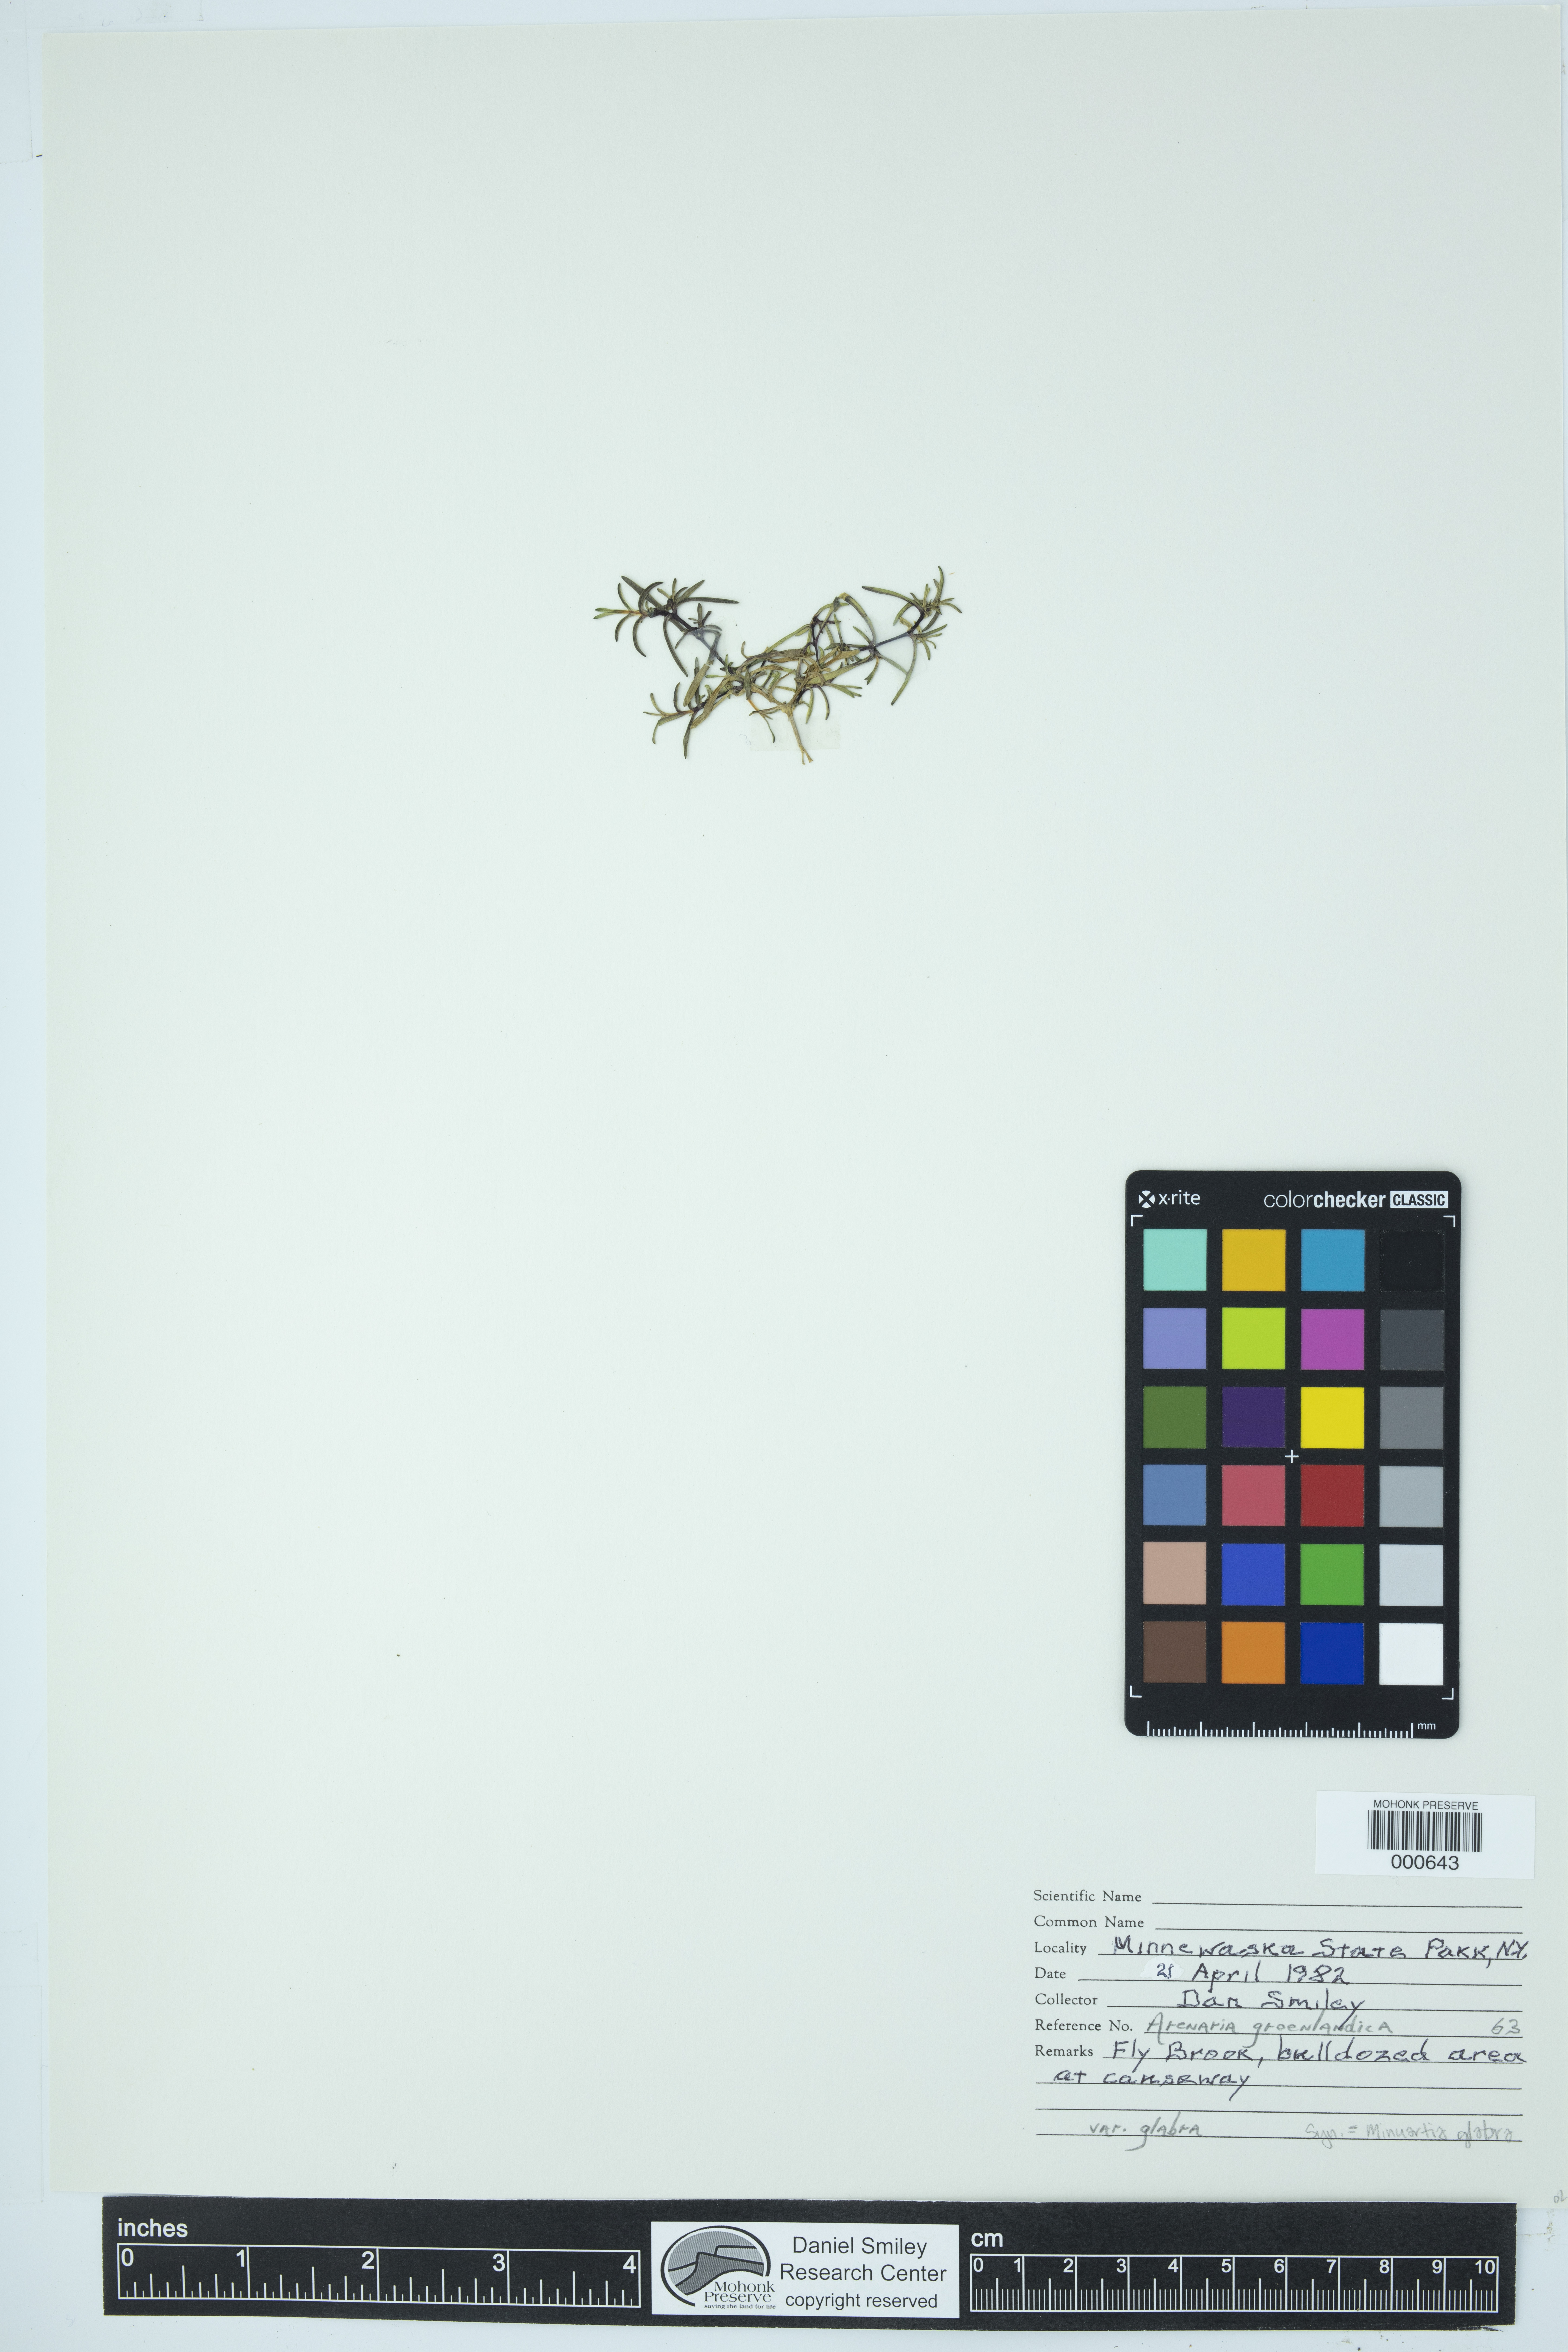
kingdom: Plantae
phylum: Tracheophyta
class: Magnoliopsida
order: Caryophyllales
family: Caryophyllaceae
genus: Geocarpon
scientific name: Geocarpon glabrum
